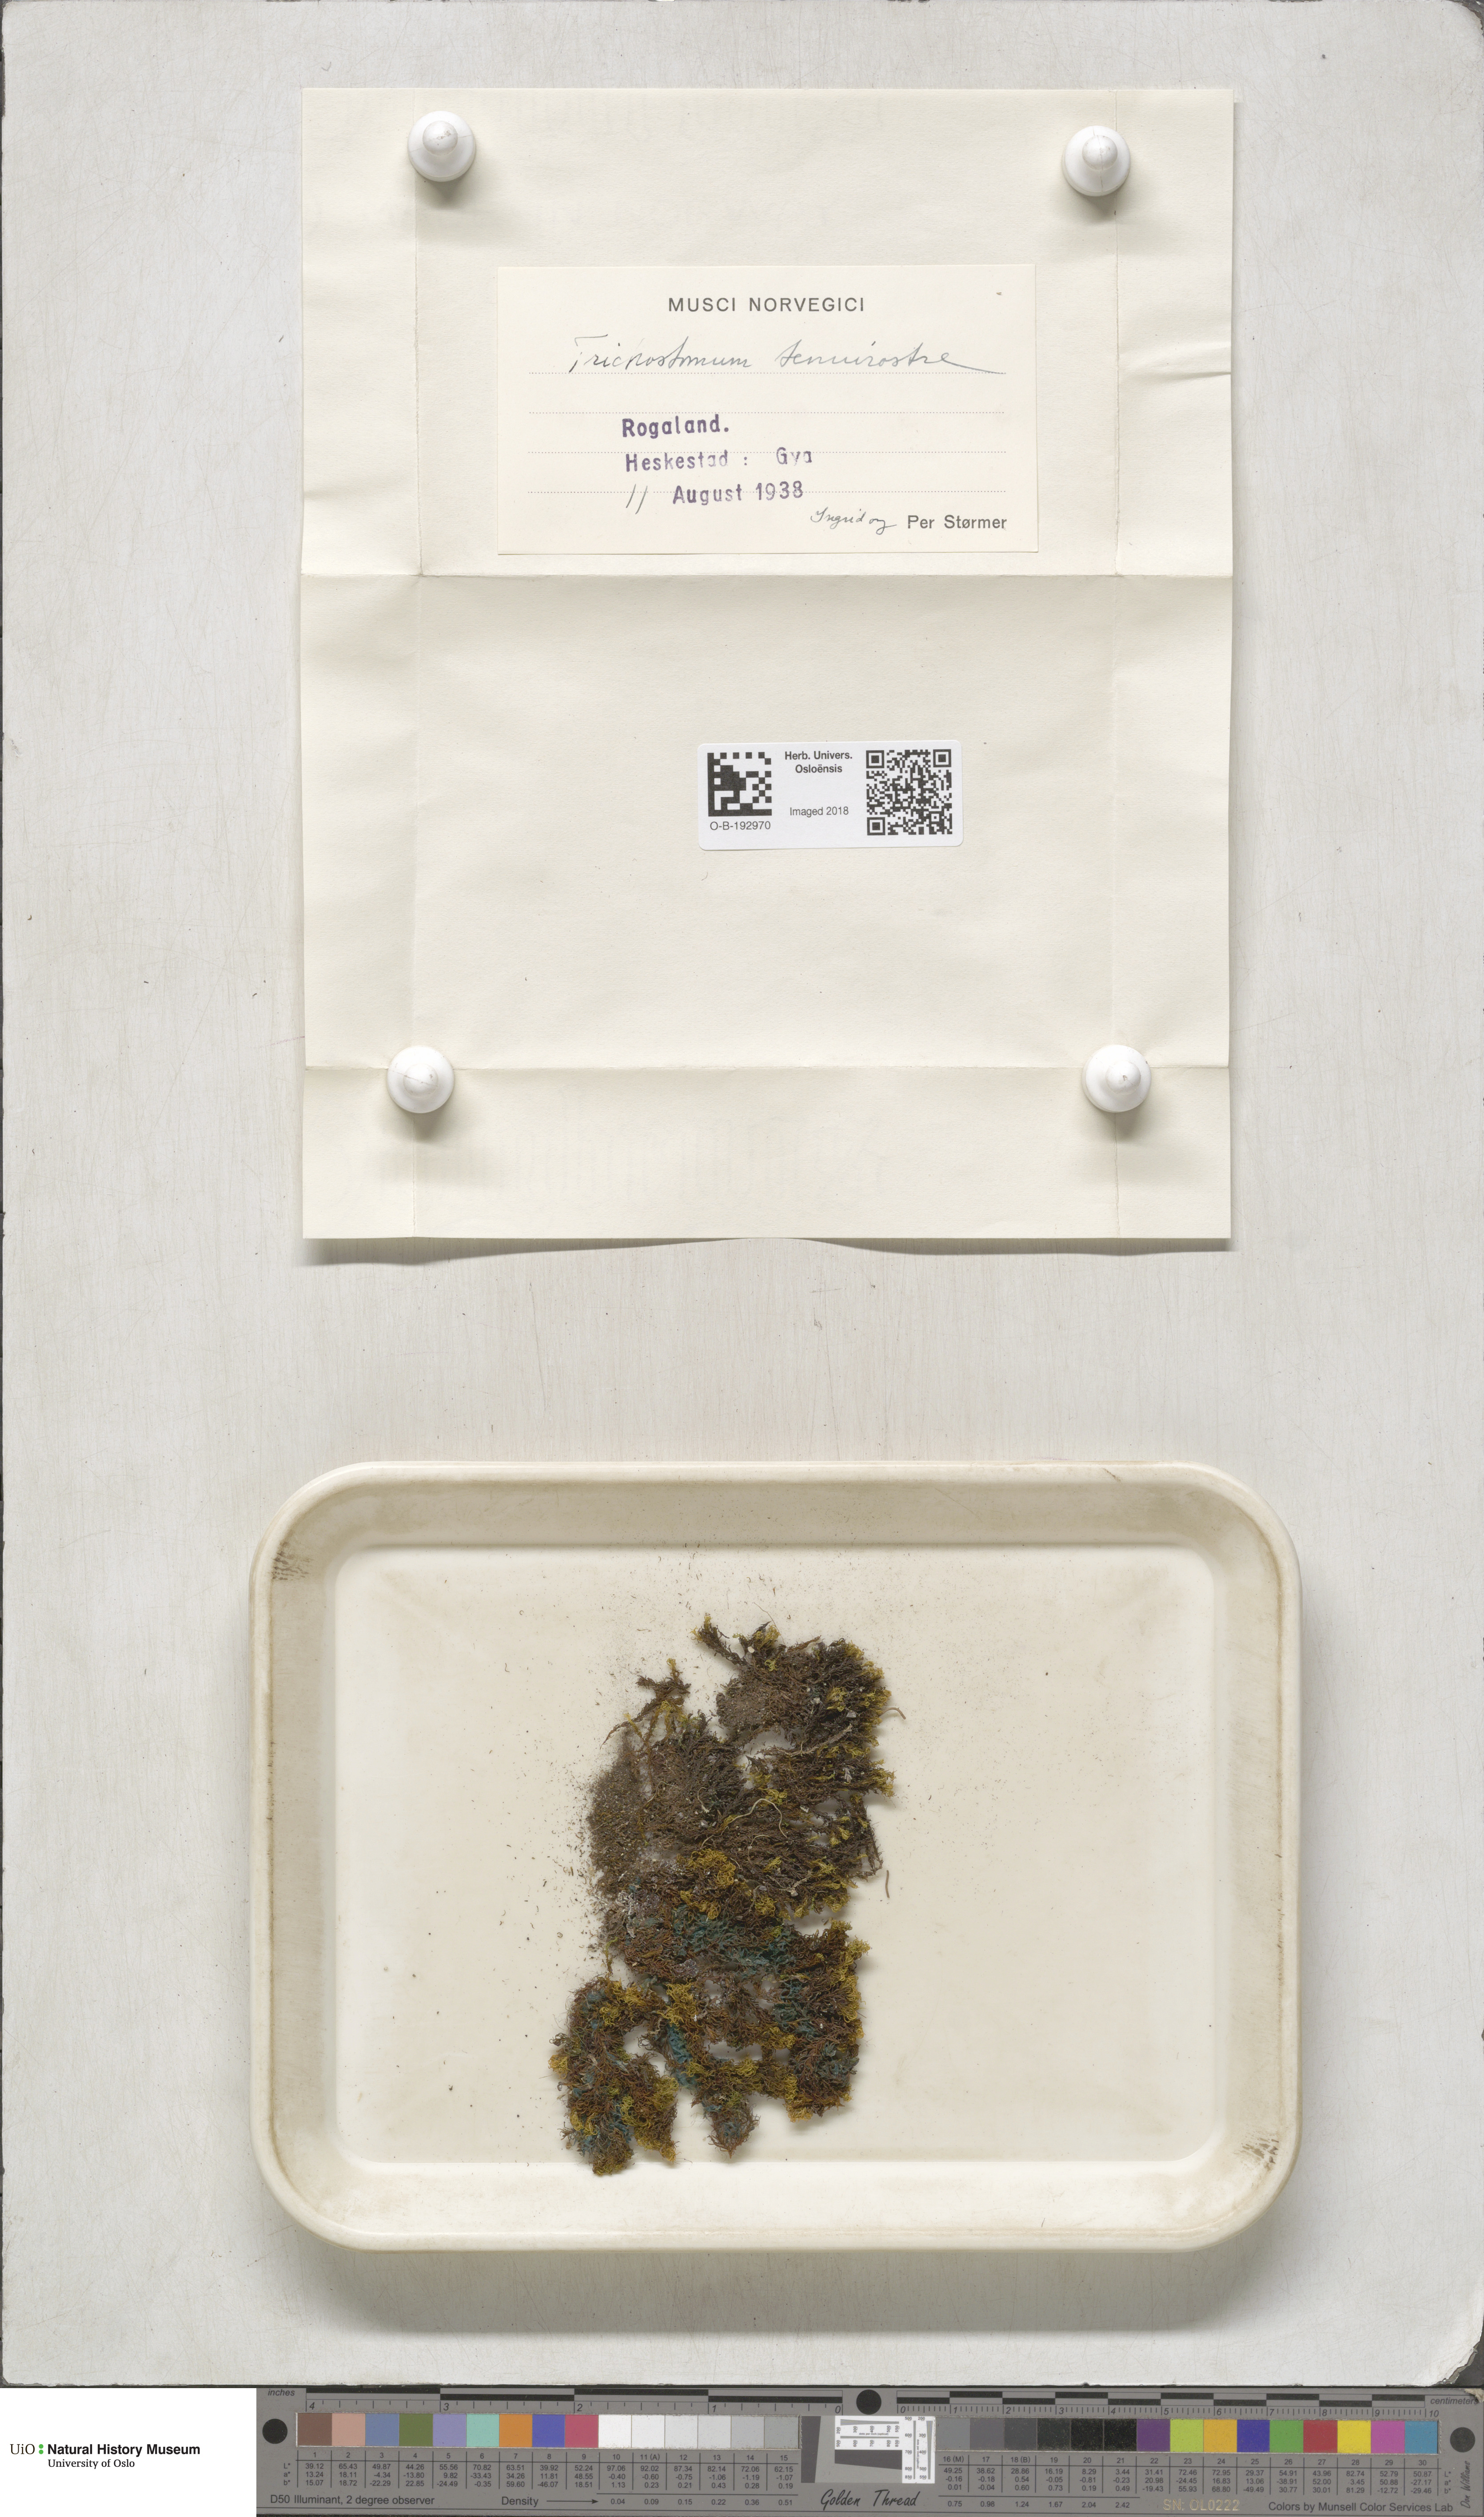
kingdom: Plantae
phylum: Bryophyta
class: Bryopsida
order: Pottiales
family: Pottiaceae
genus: Chionoloma
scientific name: Chionoloma tenuirostre
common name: Narrow-fruited crisp-moss
